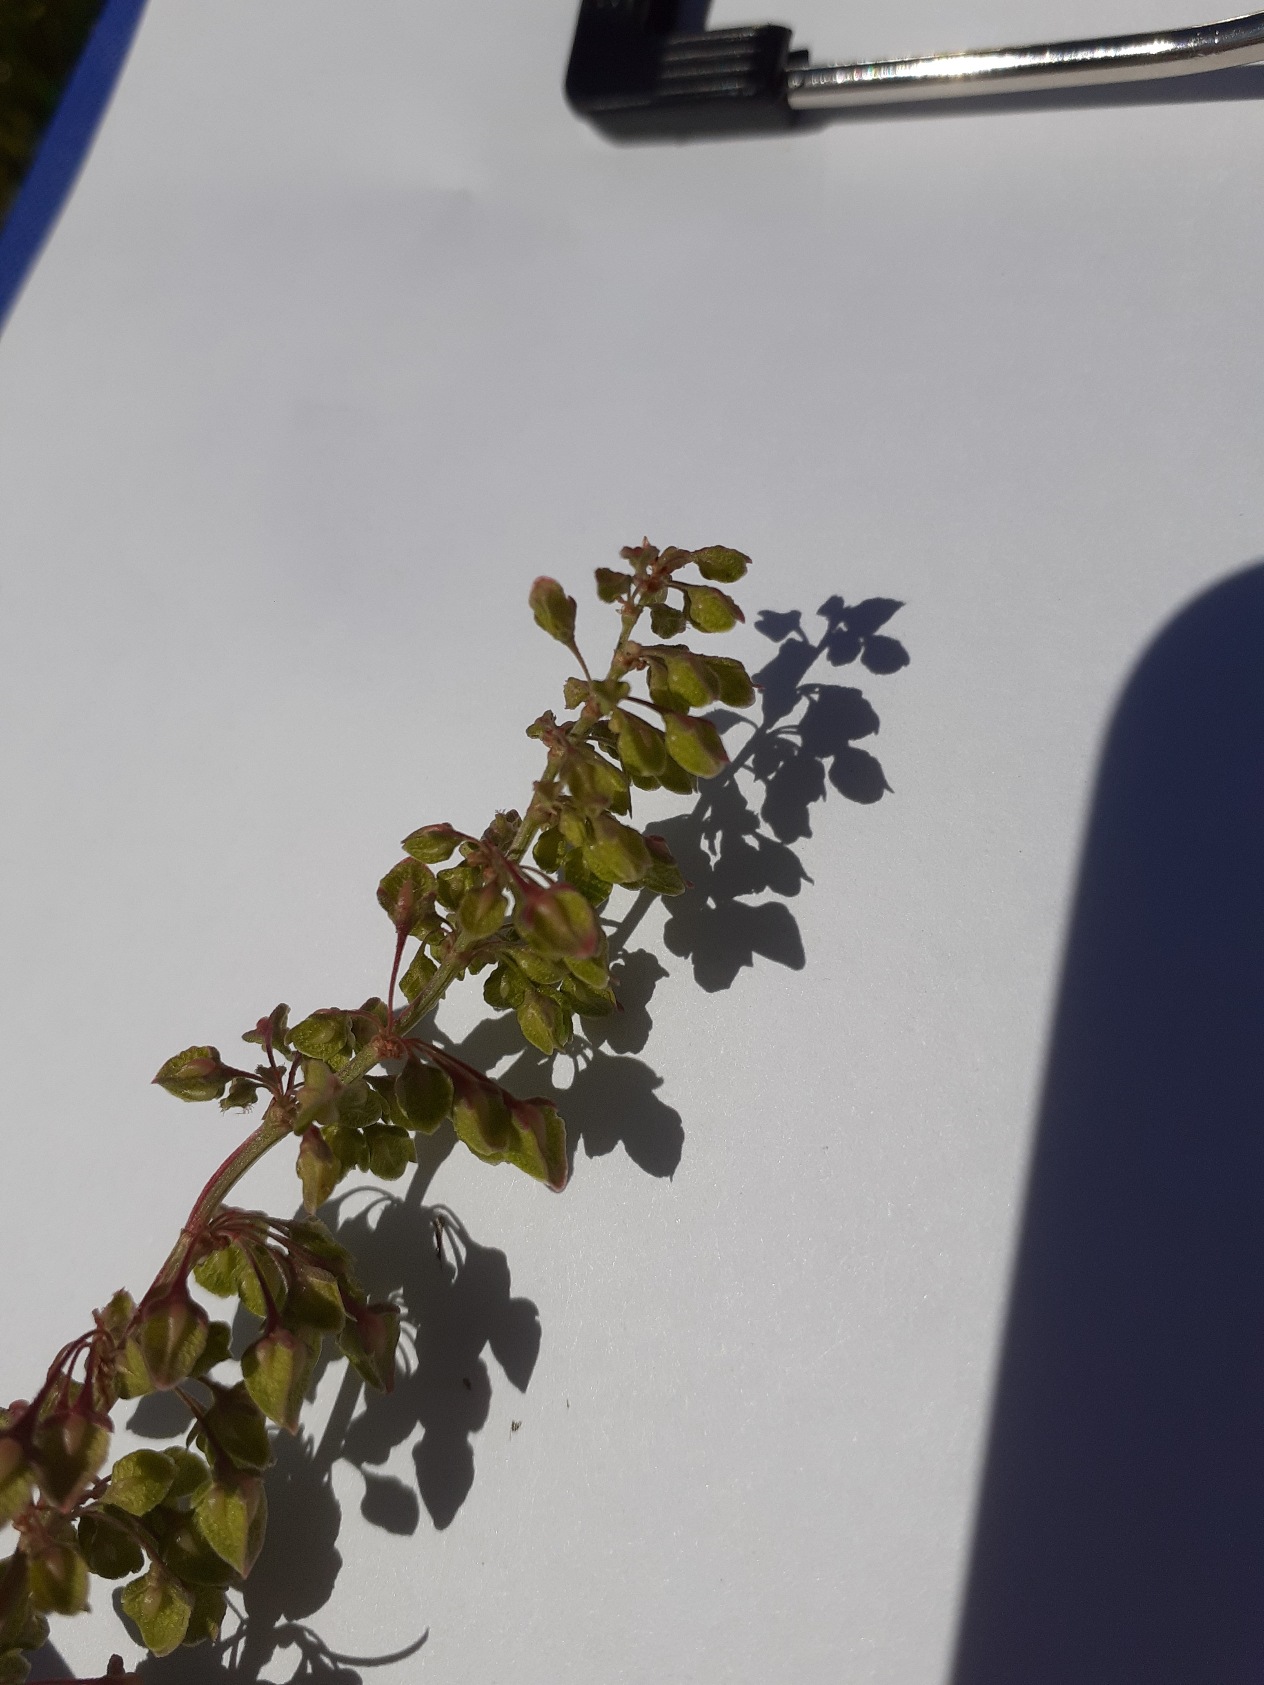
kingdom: Plantae
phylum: Tracheophyta
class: Magnoliopsida
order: Caryophyllales
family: Polygonaceae
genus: Rumex
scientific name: Rumex crispus
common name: Kruset skræppe
